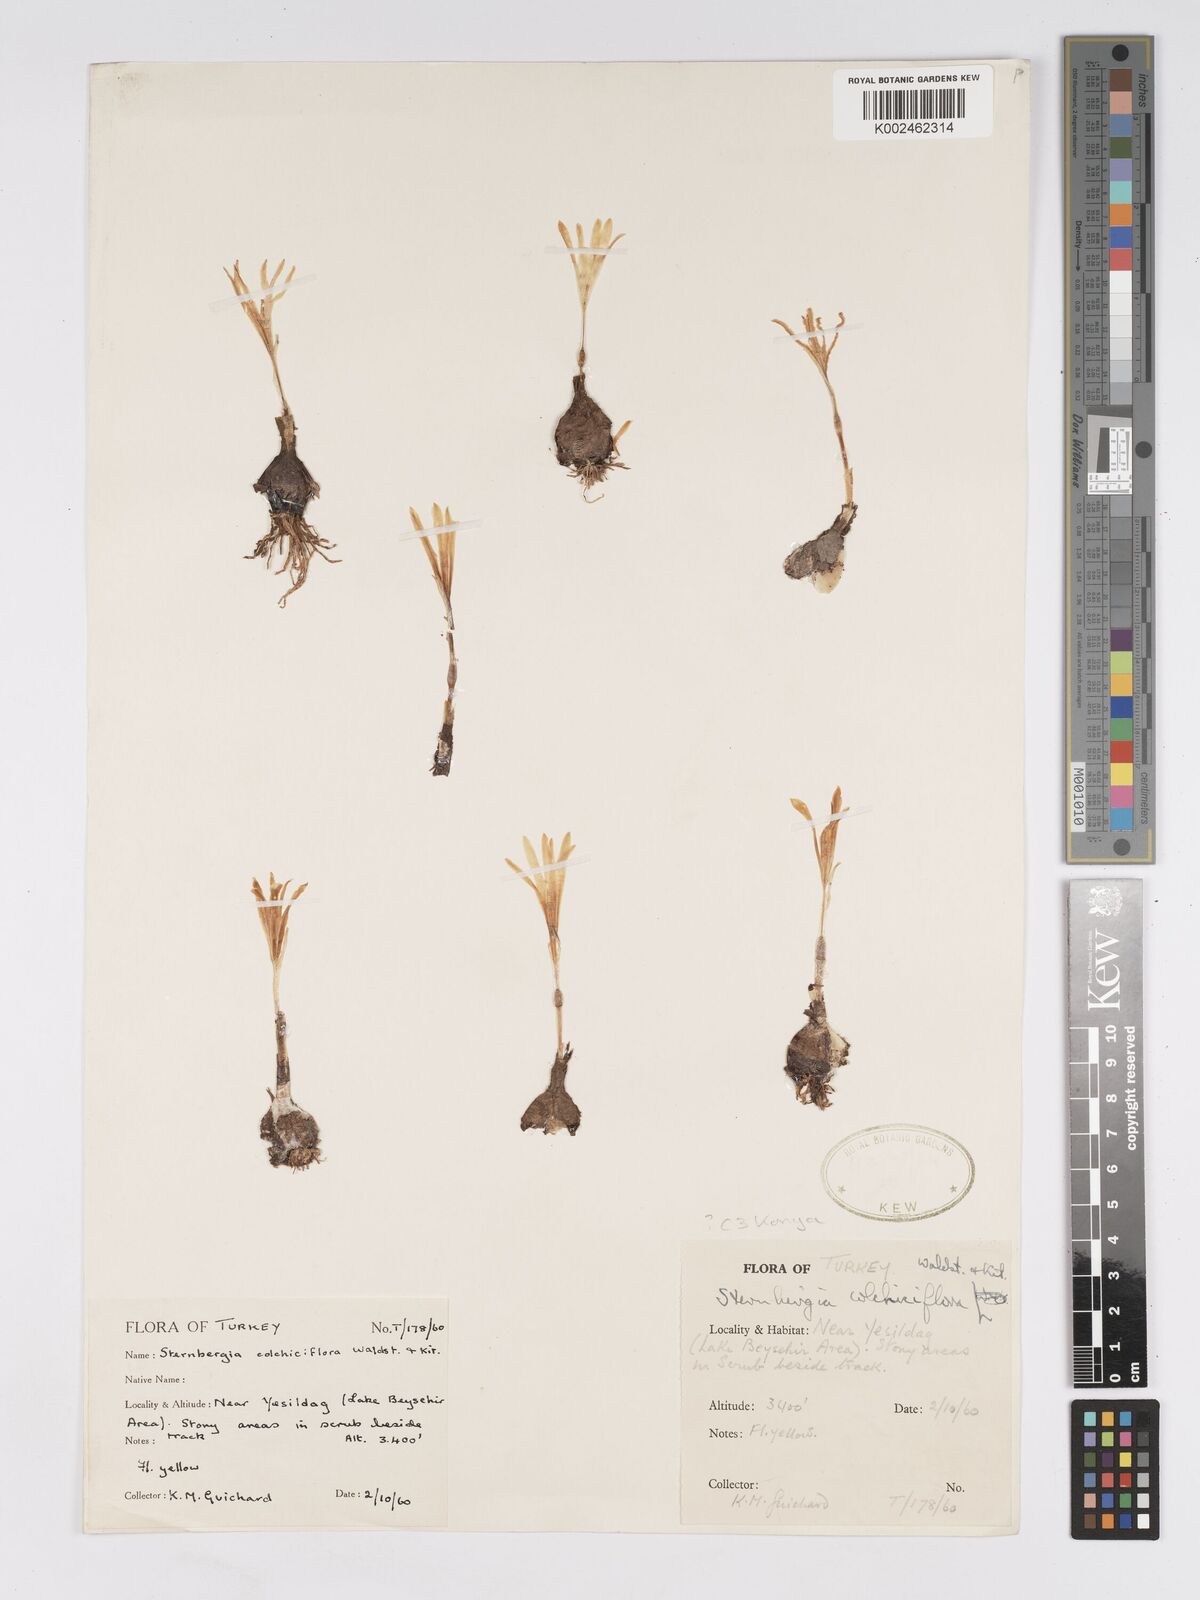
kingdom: Plantae
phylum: Tracheophyta
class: Liliopsida
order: Asparagales
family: Amaryllidaceae
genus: Sternbergia
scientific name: Sternbergia colchiciflora
